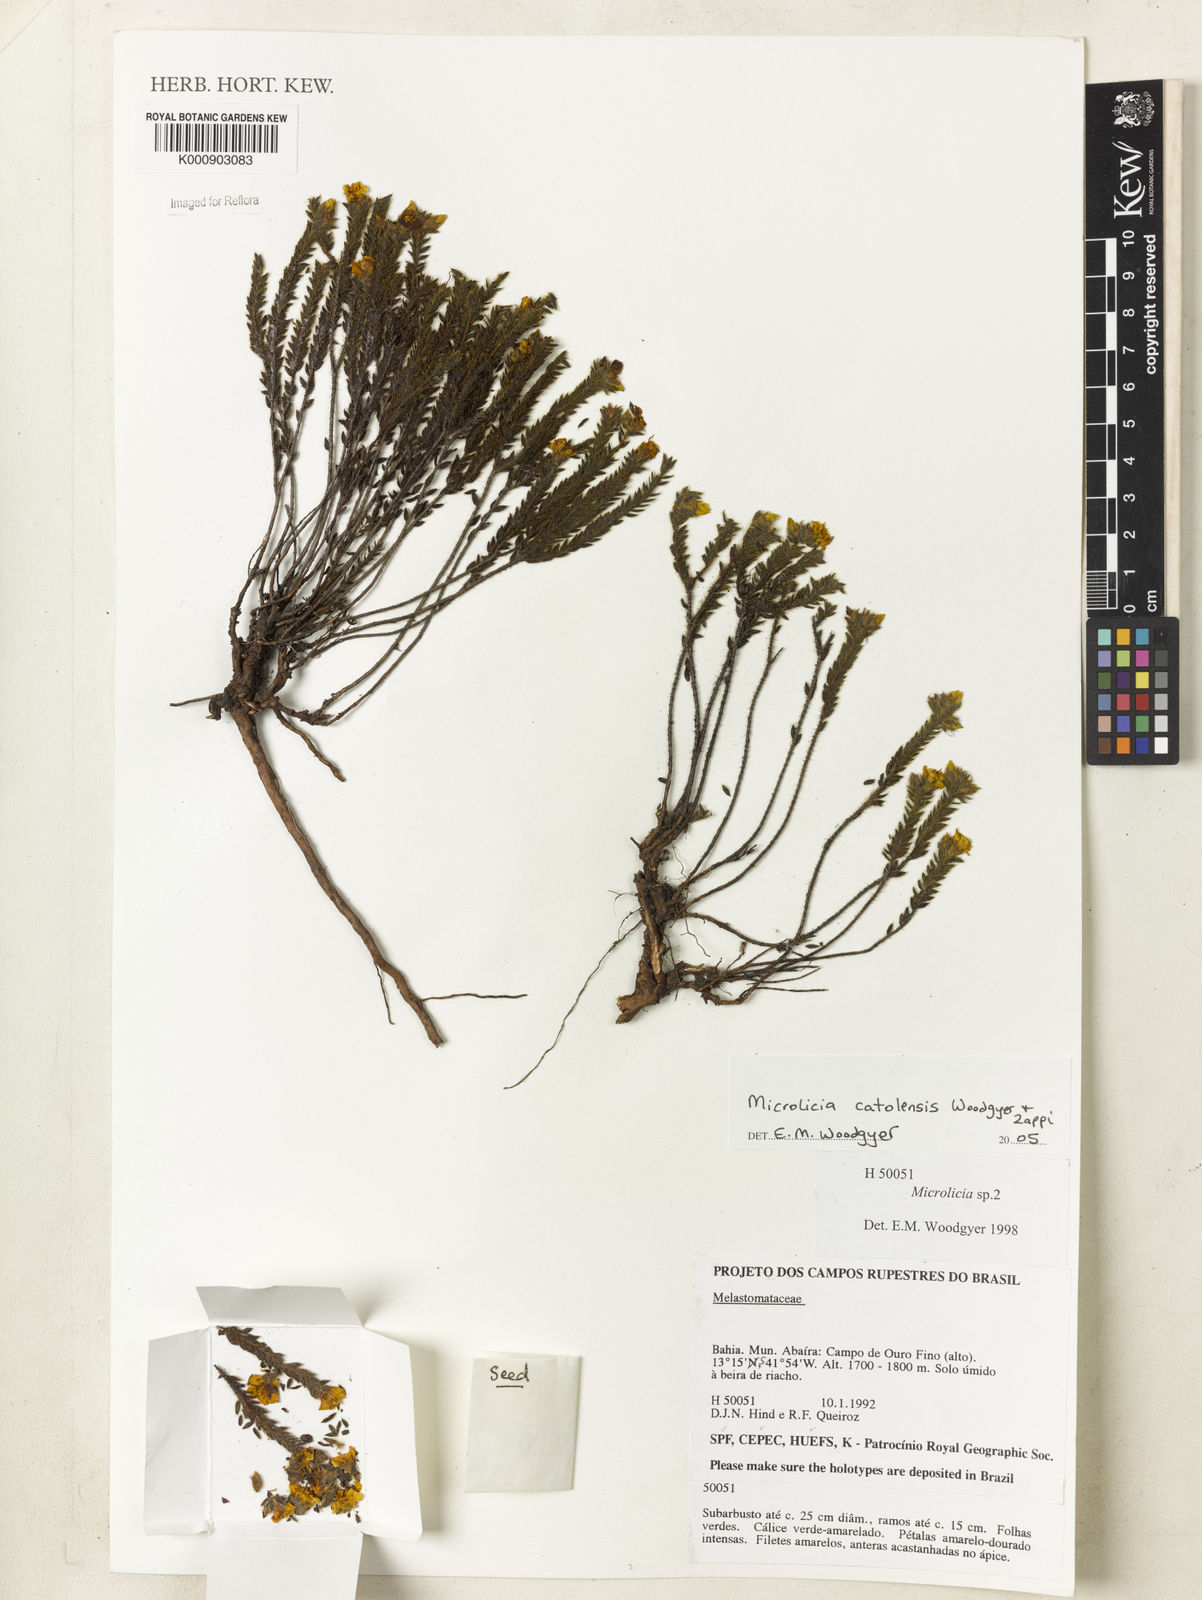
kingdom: Plantae
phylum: Tracheophyta
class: Magnoliopsida
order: Myrtales
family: Melastomataceae
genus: Microlicia
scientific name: Microlicia catolensis
